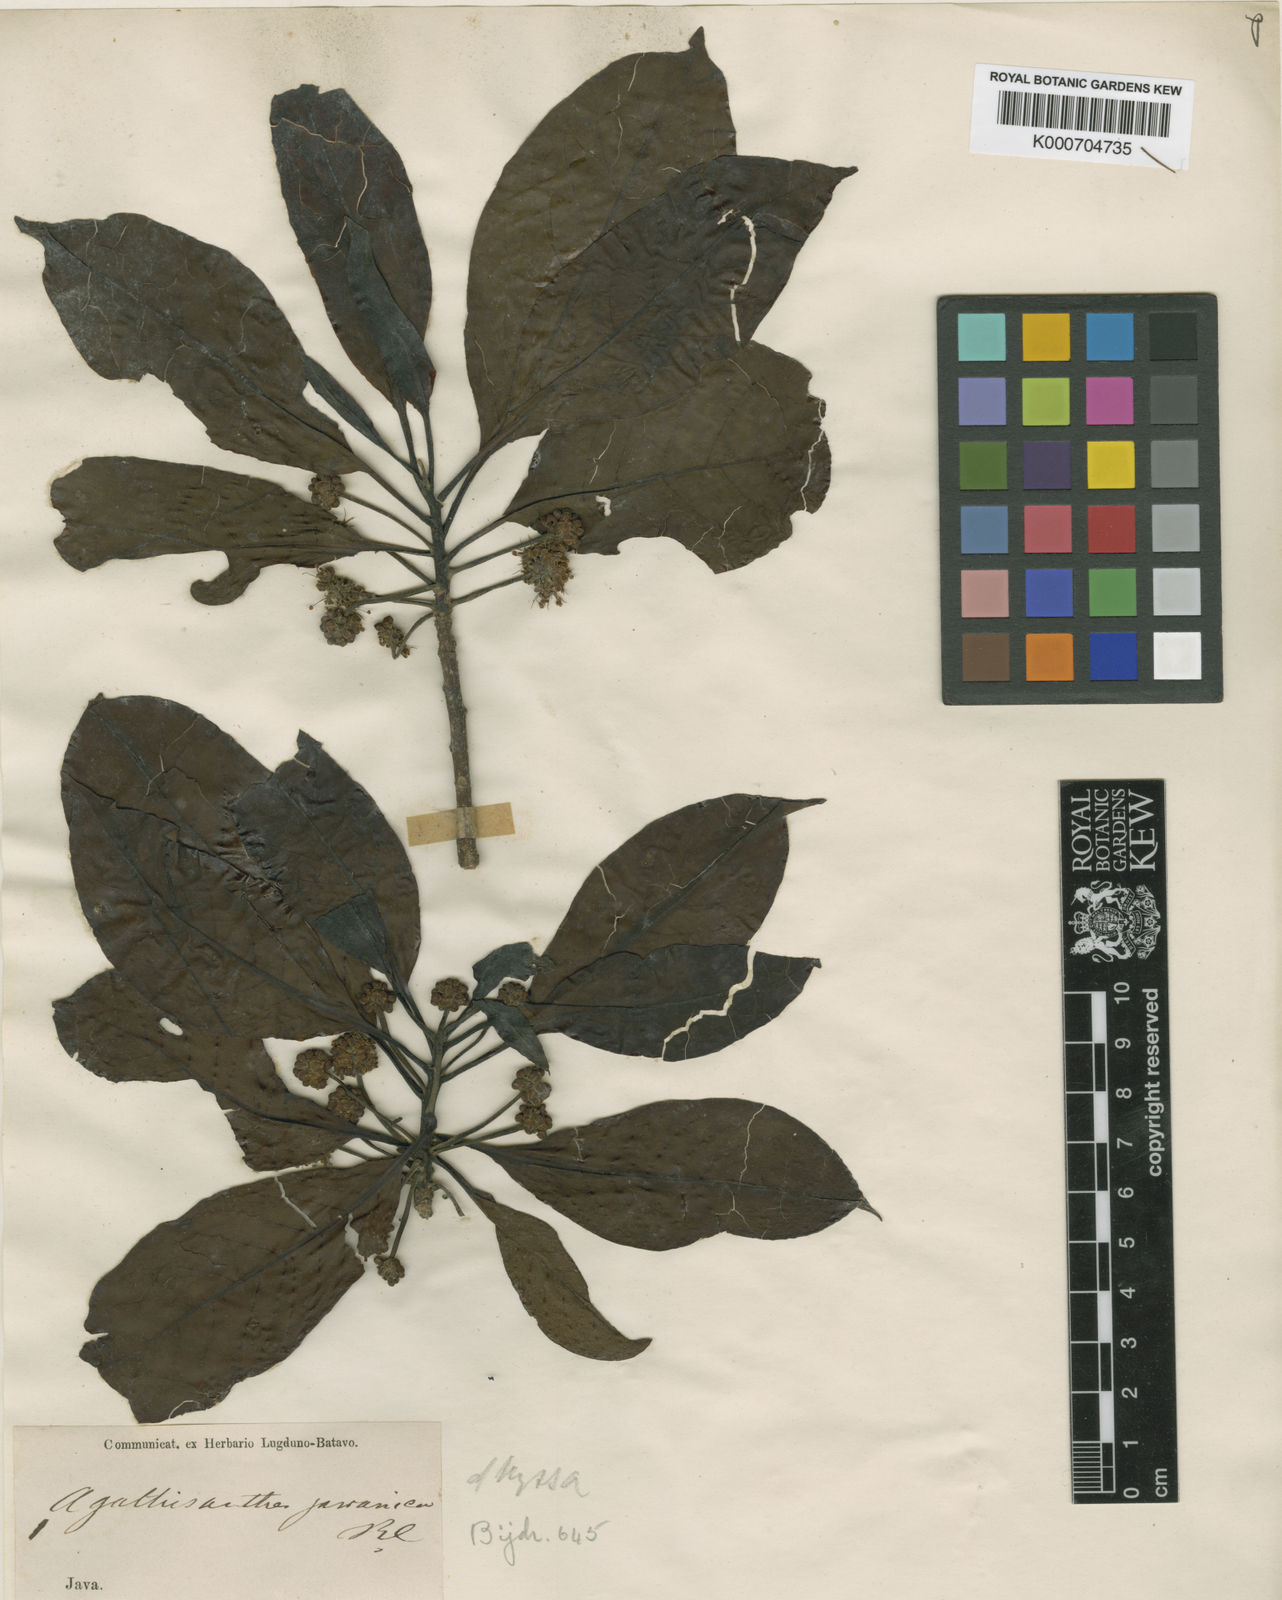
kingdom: Plantae
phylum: Tracheophyta
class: Magnoliopsida
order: Cornales
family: Nyssaceae
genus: Nyssa
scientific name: Nyssa javanica
